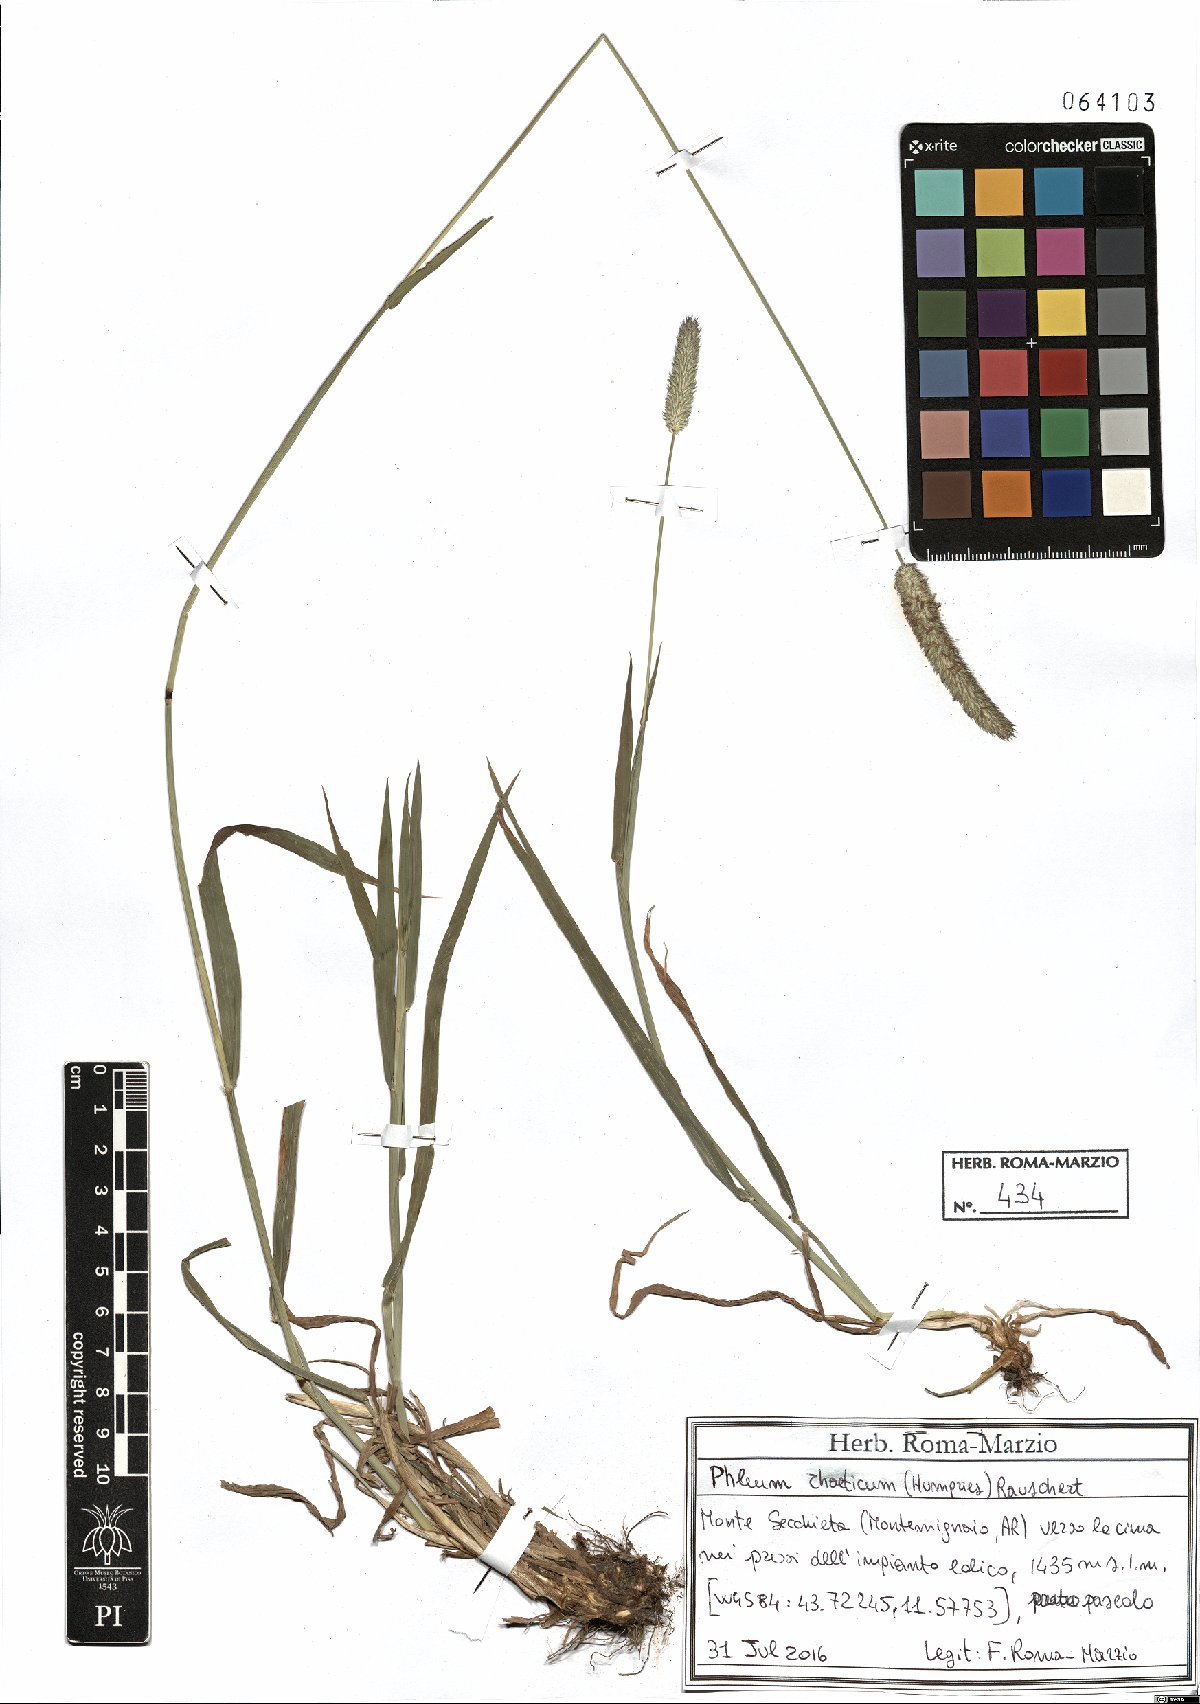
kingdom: Plantae
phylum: Tracheophyta
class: Liliopsida
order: Poales
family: Poaceae
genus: Phleum
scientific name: Phleum alpinum
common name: Alpine cat's-tail
